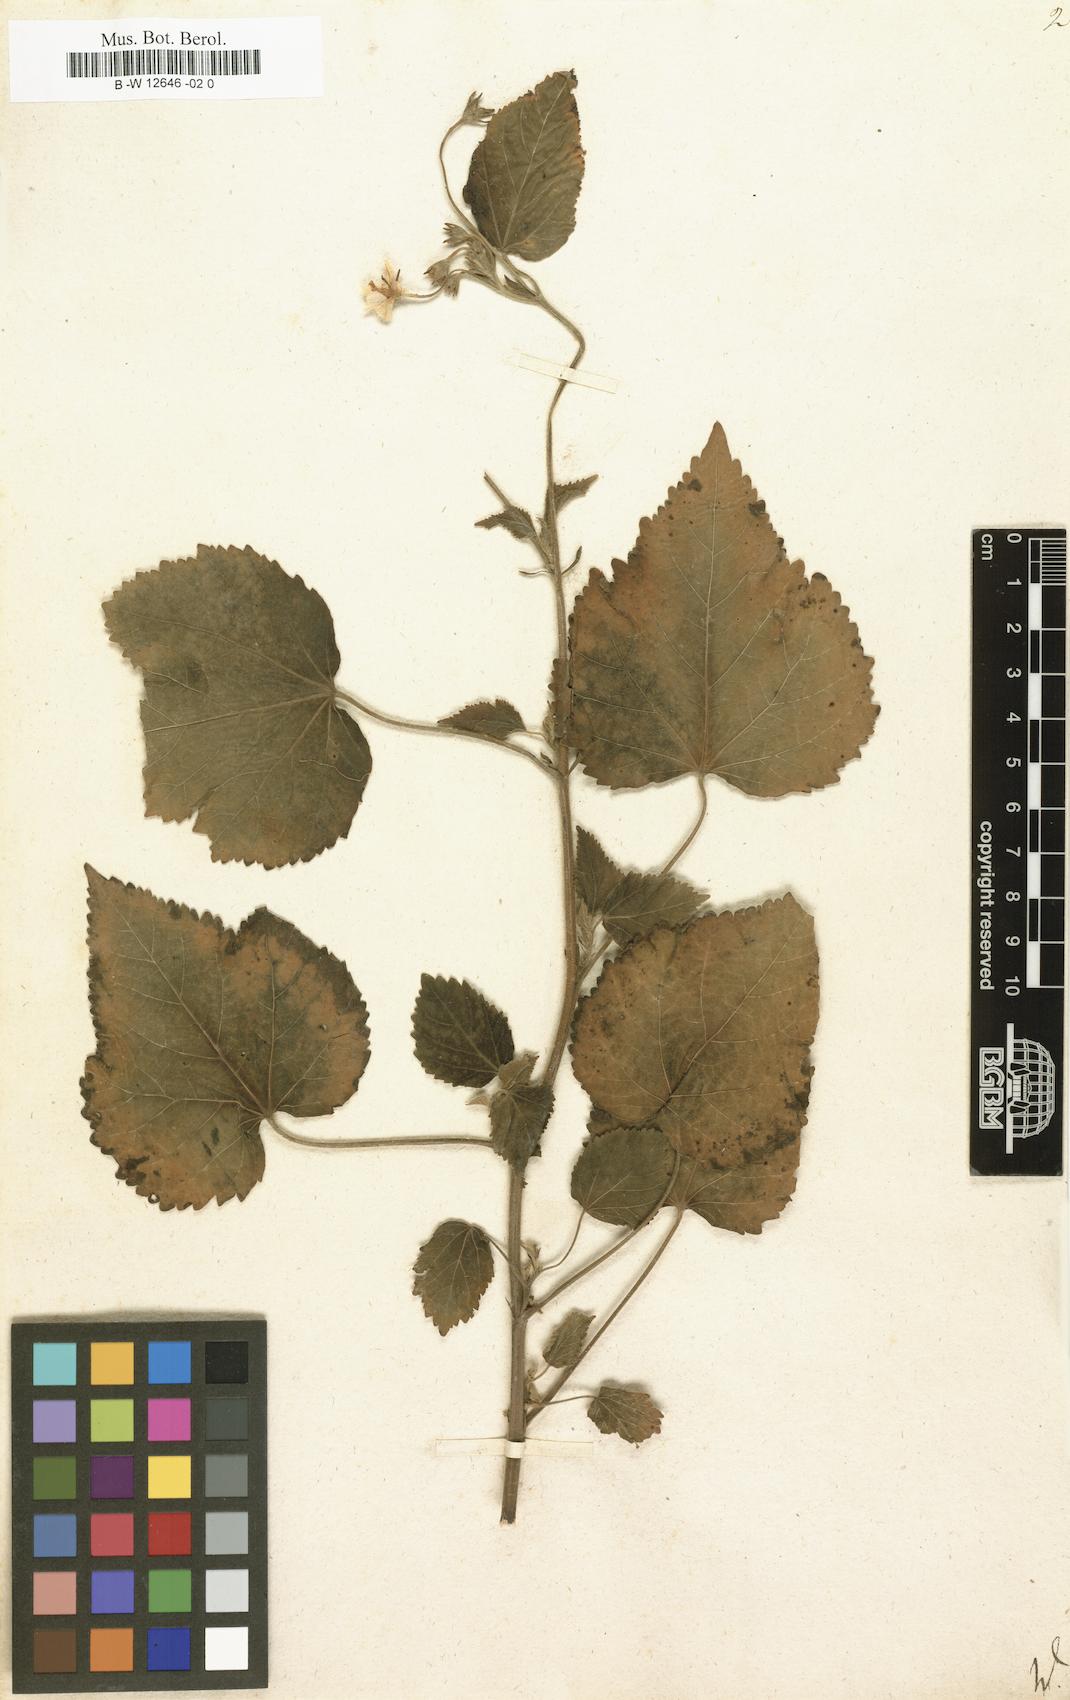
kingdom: Plantae
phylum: Tracheophyta
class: Magnoliopsida
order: Malvales
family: Malvaceae
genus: Lagunaea
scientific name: Lagunaea
